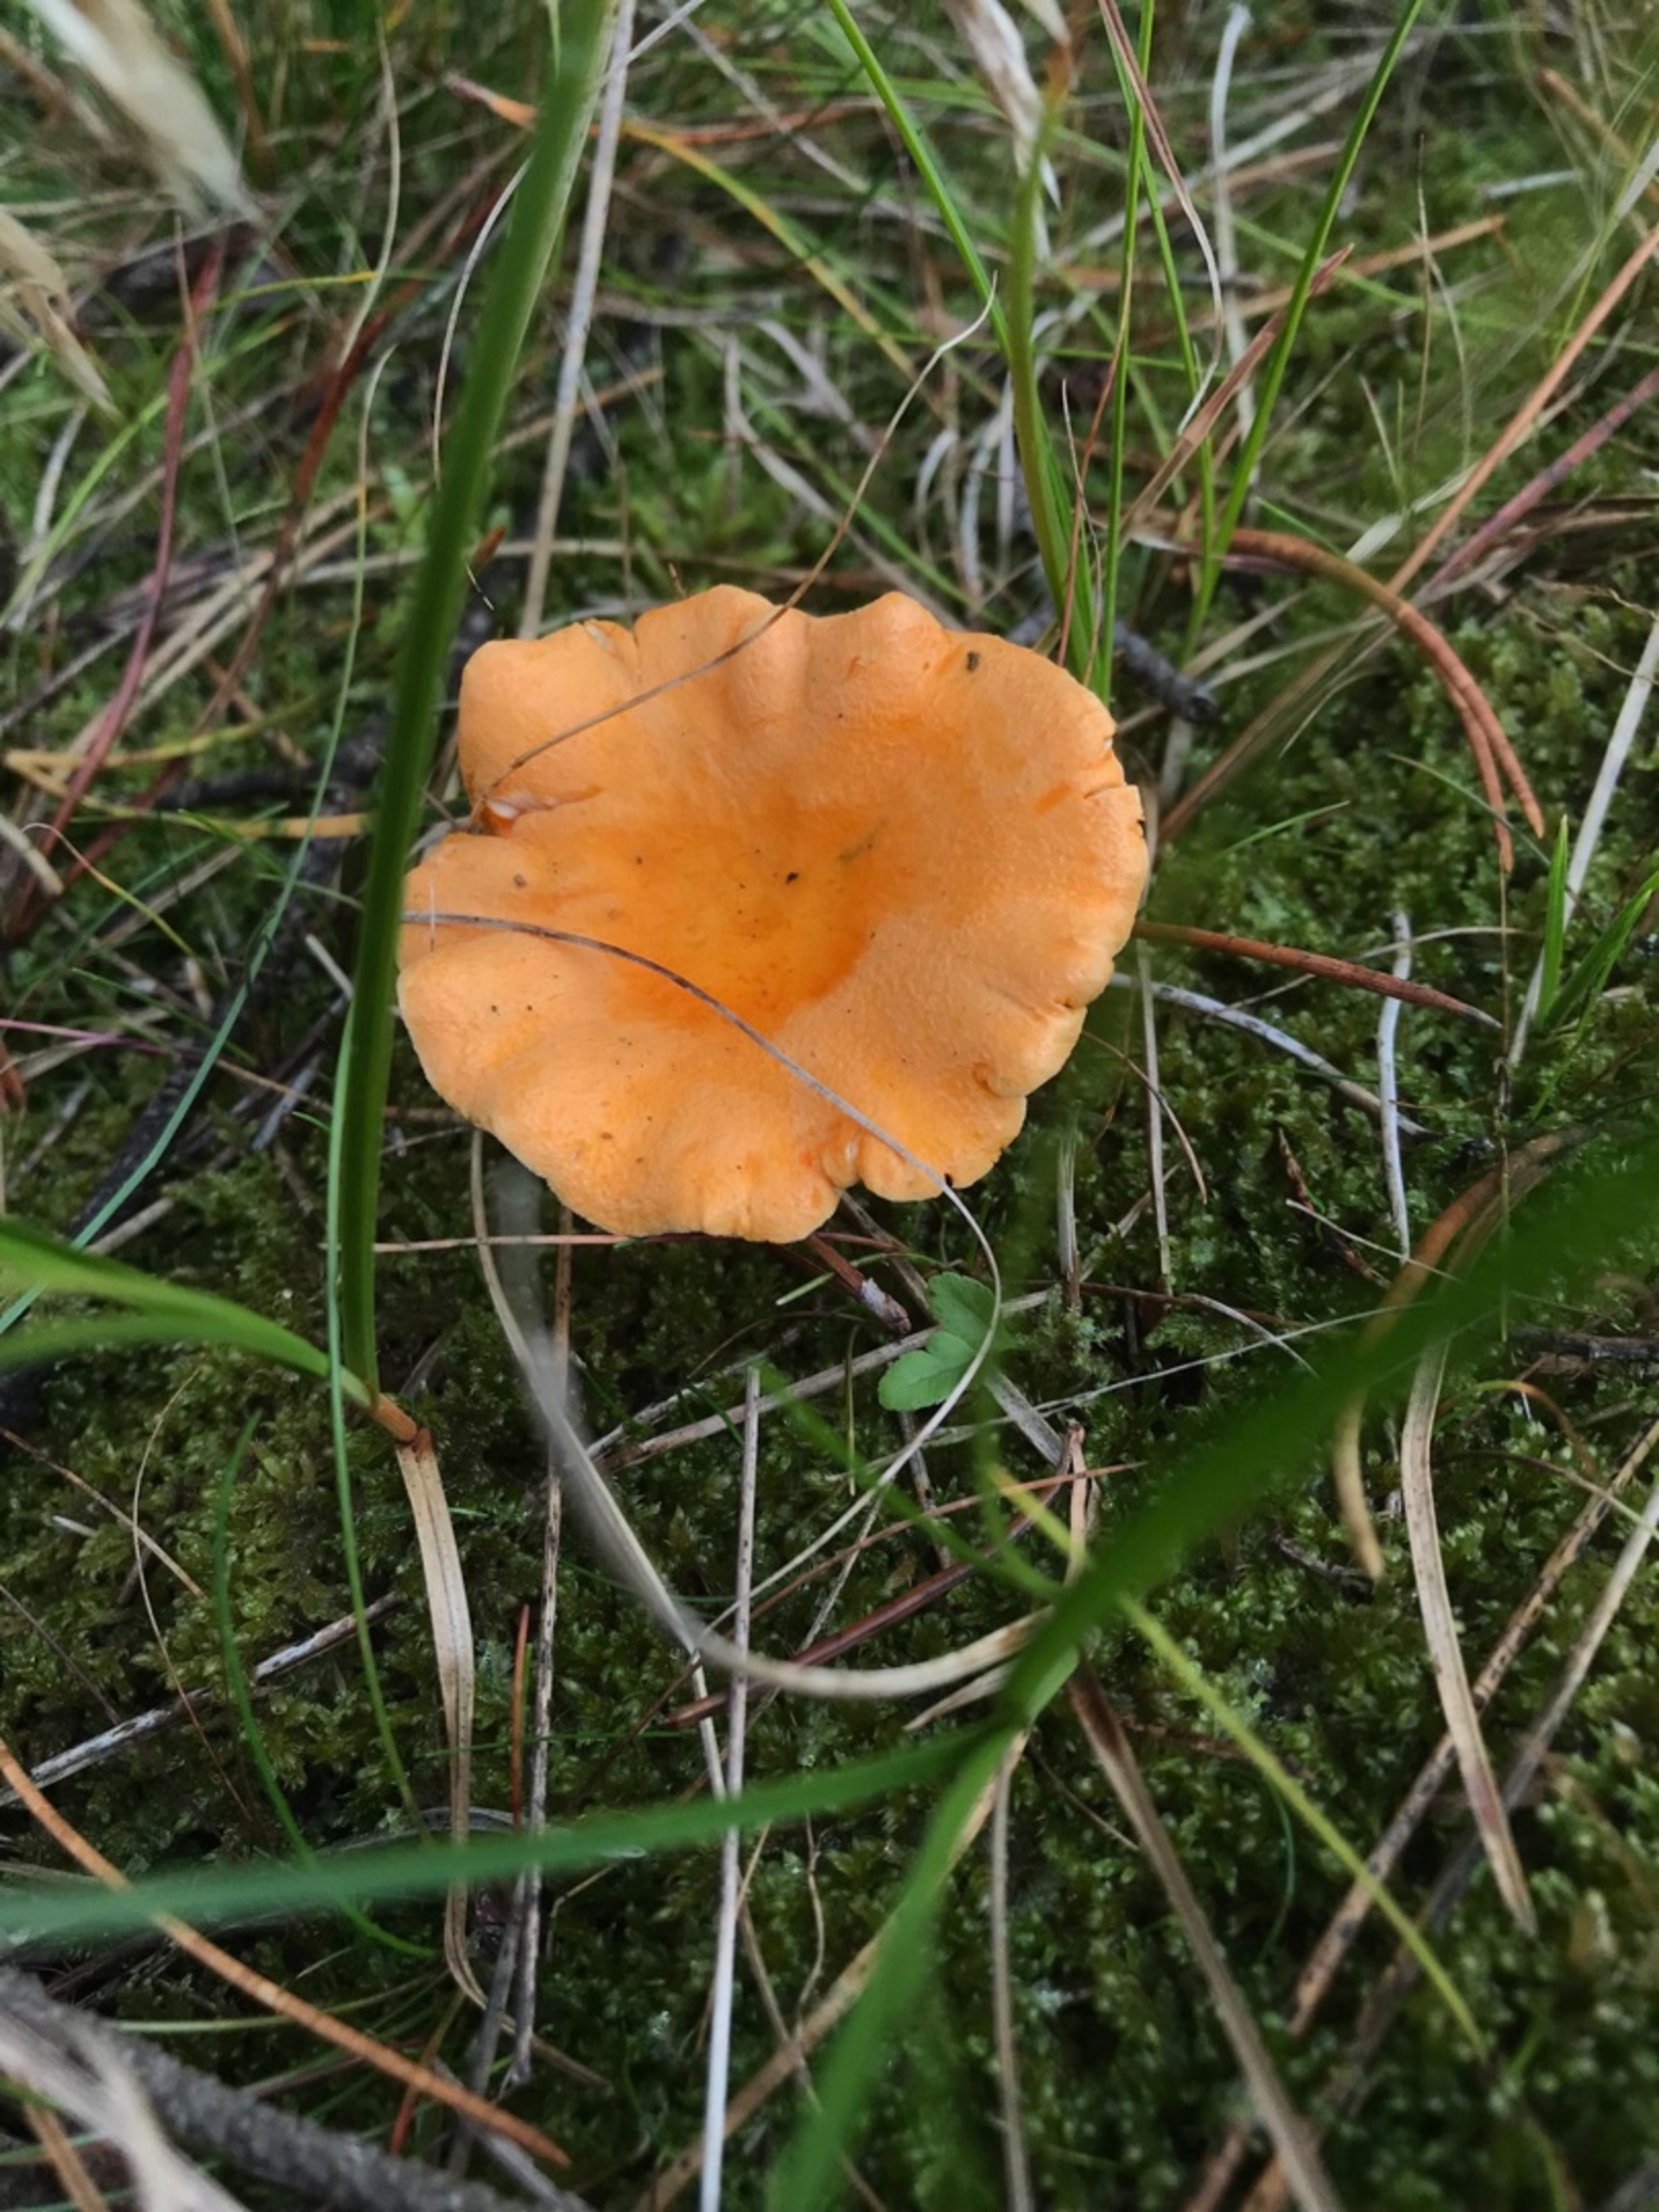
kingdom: Fungi
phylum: Basidiomycota
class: Agaricomycetes
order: Boletales
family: Hygrophoropsidaceae
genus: Hygrophoropsis
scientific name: Hygrophoropsis aurantiaca
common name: Almindelig orangekantarel
